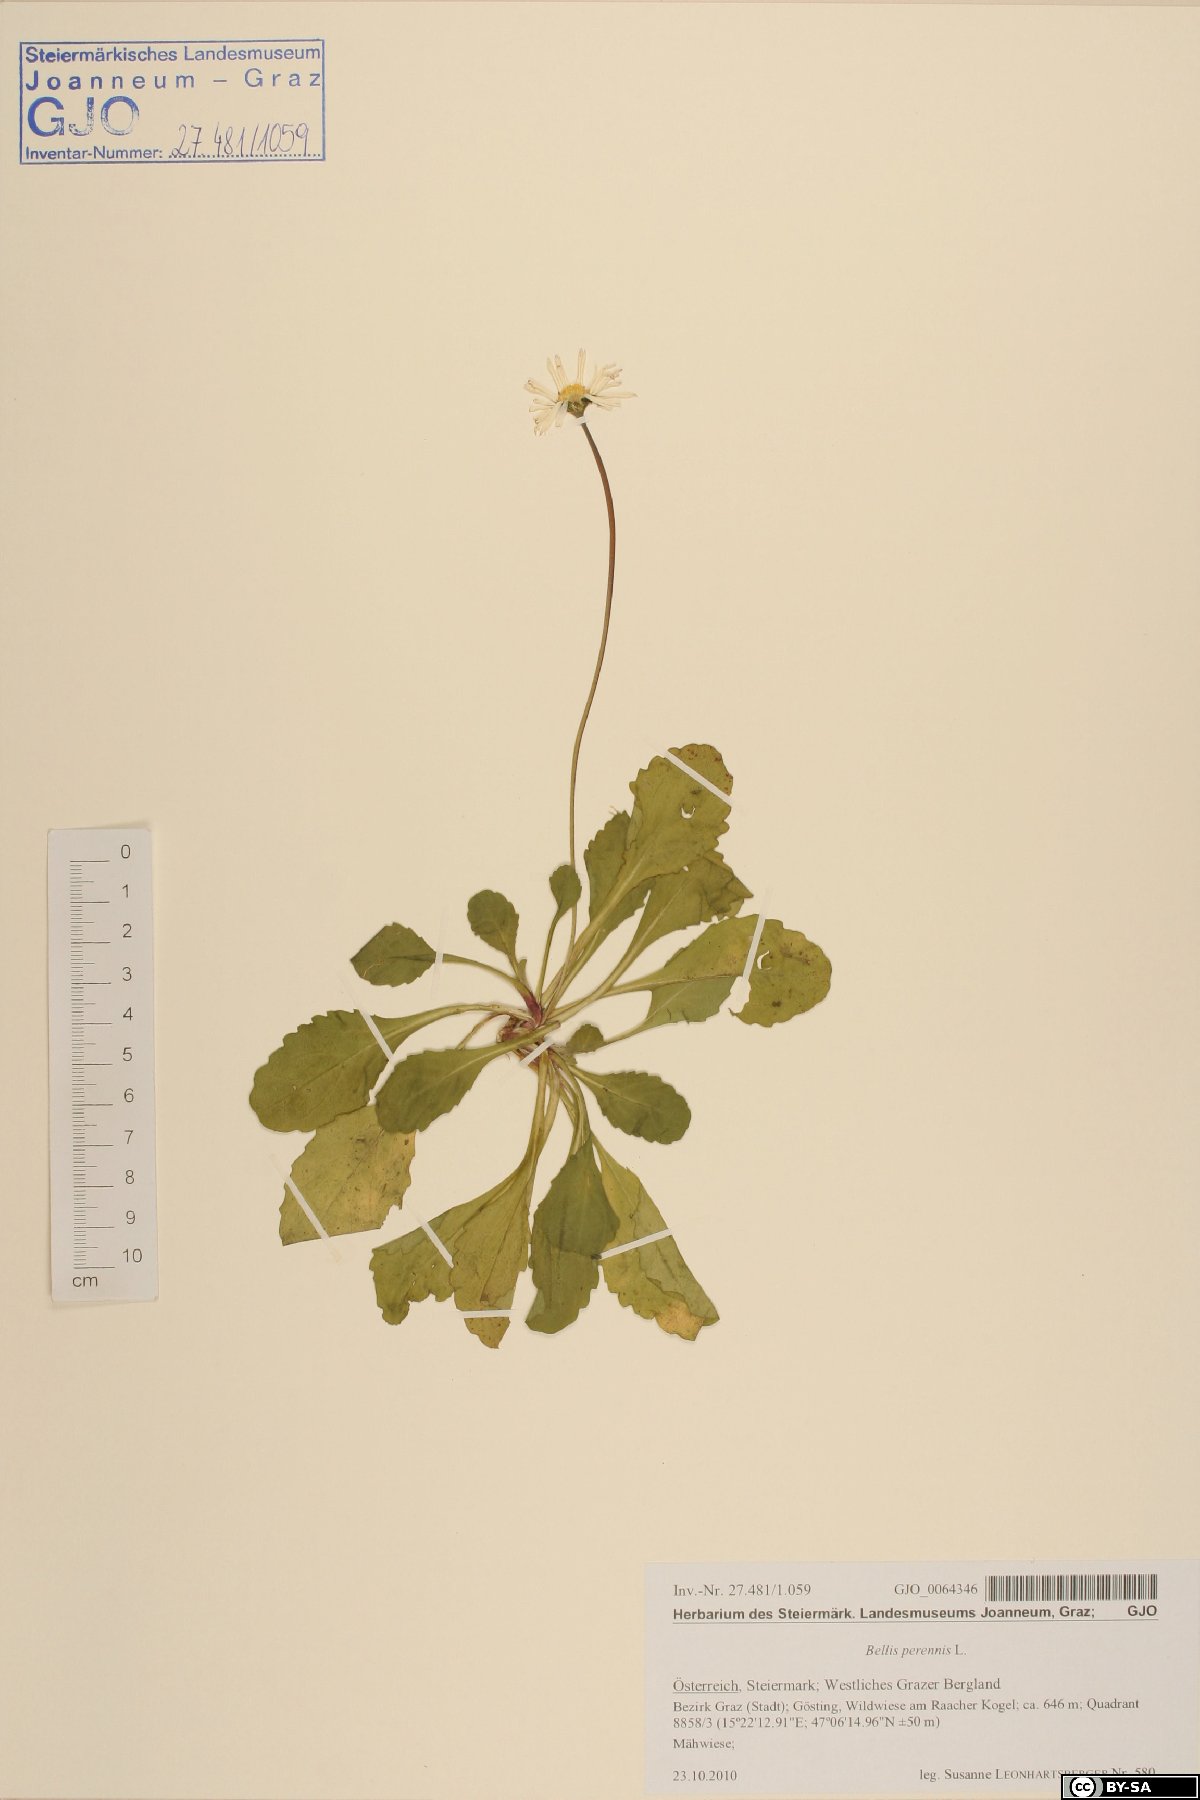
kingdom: Plantae
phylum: Tracheophyta
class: Magnoliopsida
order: Asterales
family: Asteraceae
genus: Bellis
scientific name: Bellis perennis
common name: Lawndaisy
